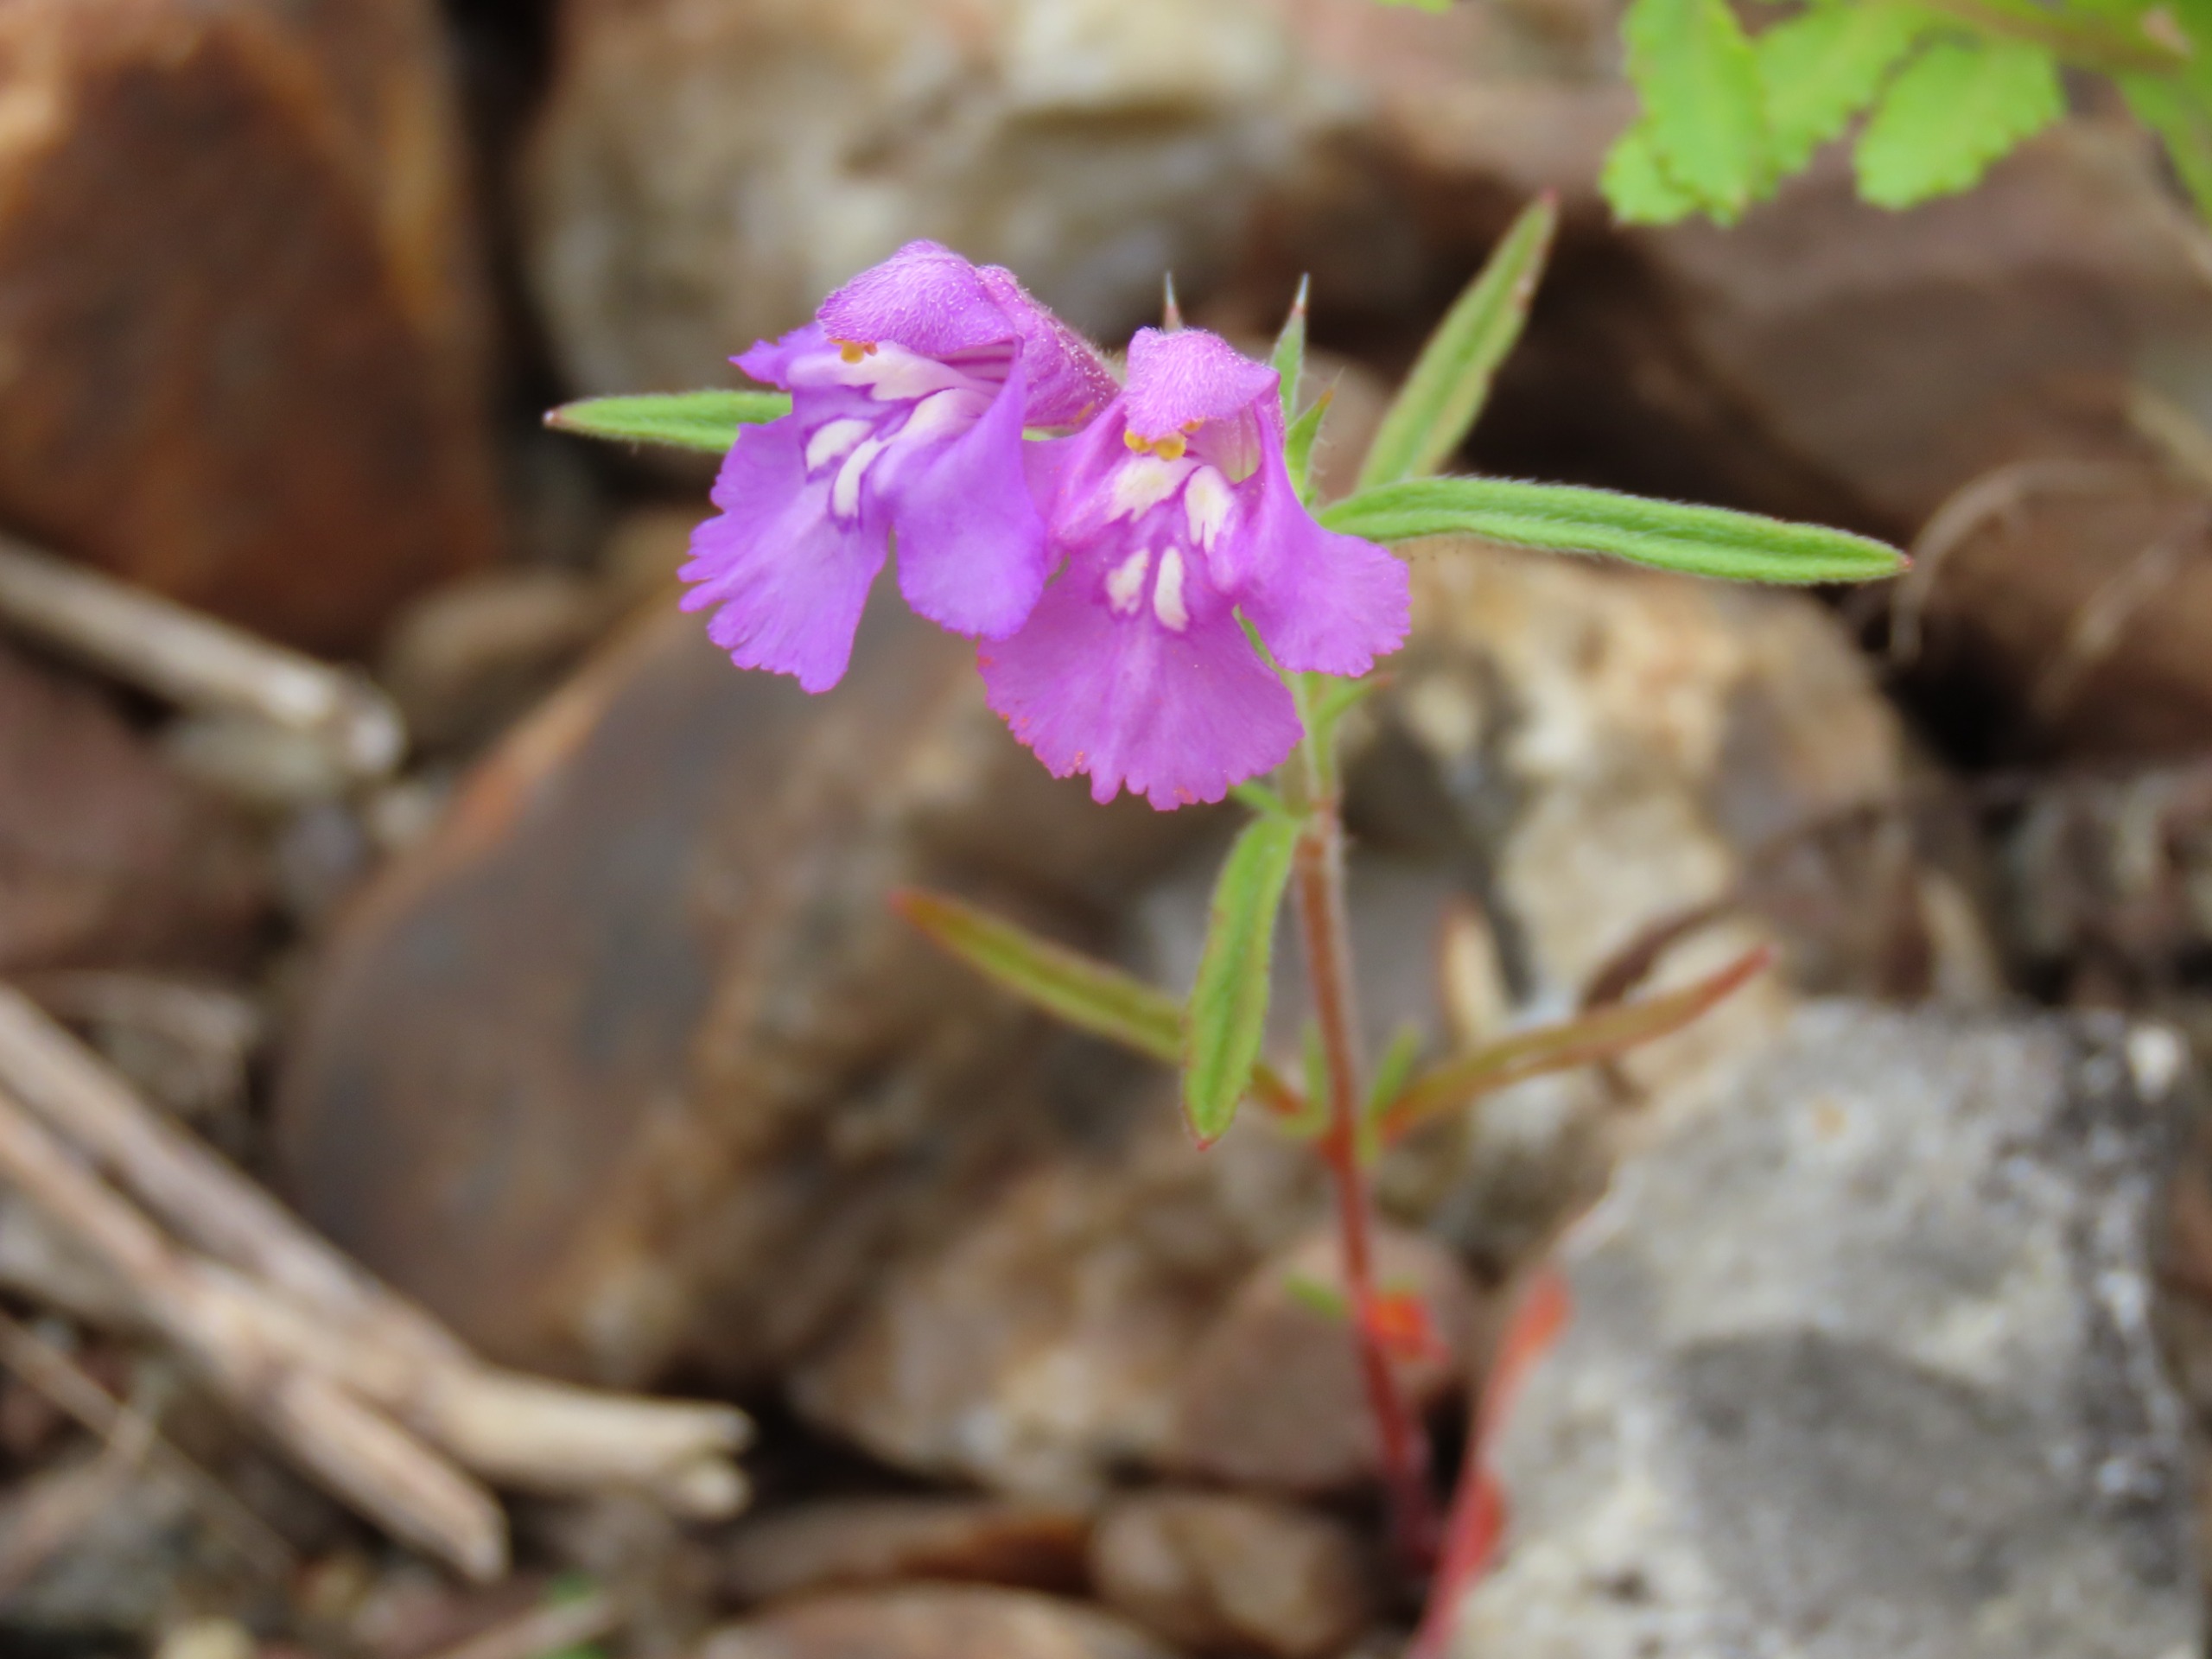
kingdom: Plantae
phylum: Tracheophyta
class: Magnoliopsida
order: Lamiales
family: Lamiaceae
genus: Galeopsis
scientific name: Galeopsis angustifolia
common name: Smalbladet hanekro
